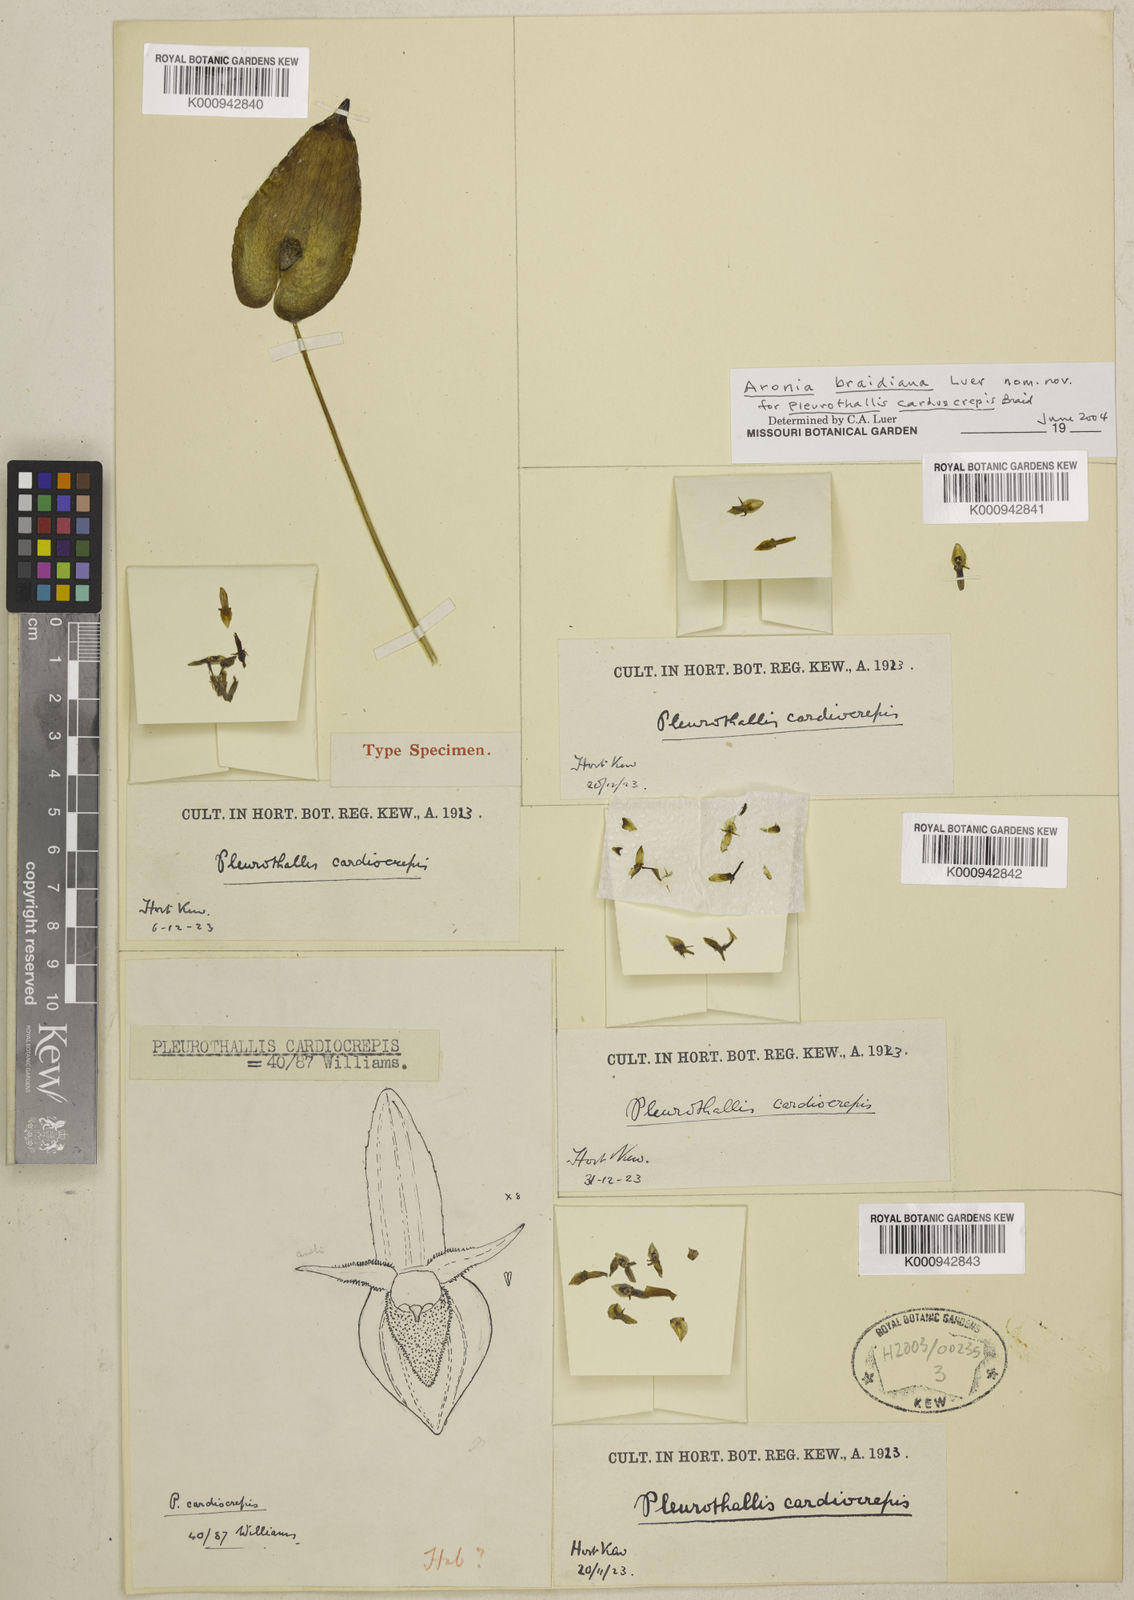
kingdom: Plantae
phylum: Tracheophyta
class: Liliopsida
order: Asparagales
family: Orchidaceae
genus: Pleurothallis
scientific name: Pleurothallis braidiana
